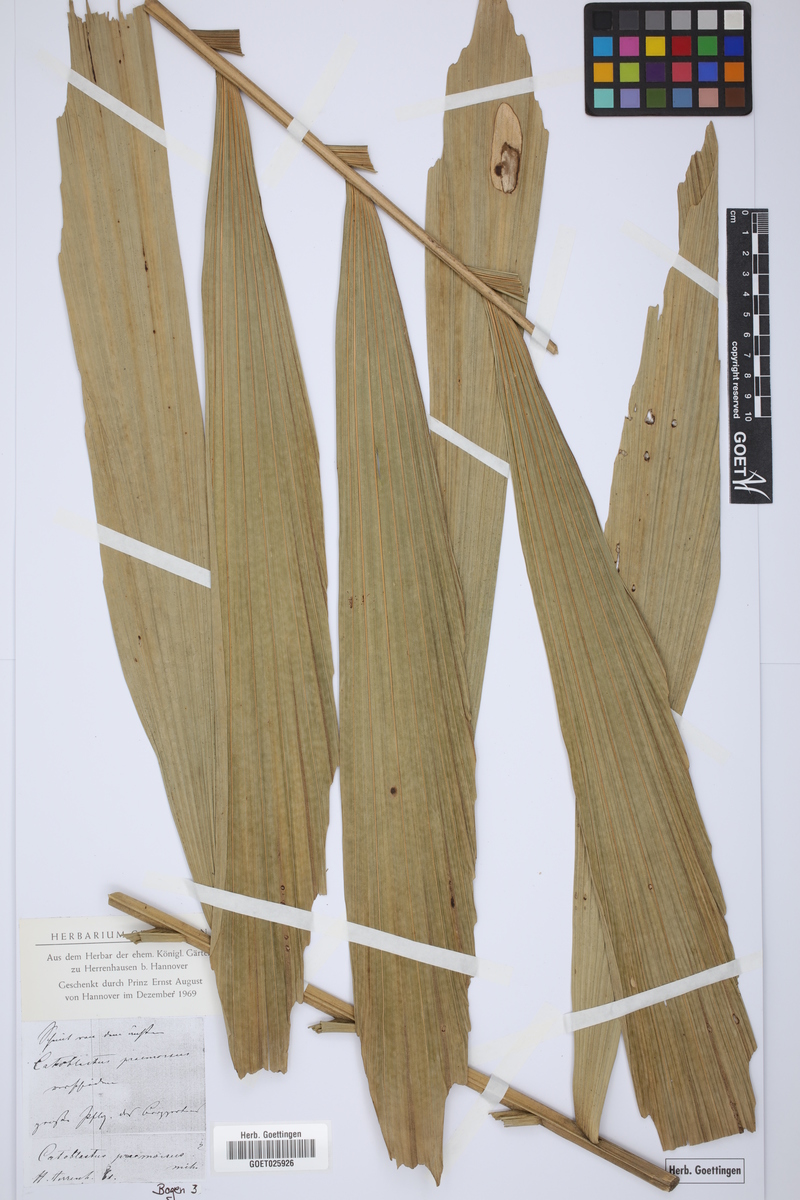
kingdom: Plantae
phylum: Tracheophyta
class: Liliopsida
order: Arecales
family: Arecaceae
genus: Wettinia
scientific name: Wettinia praemorsa
